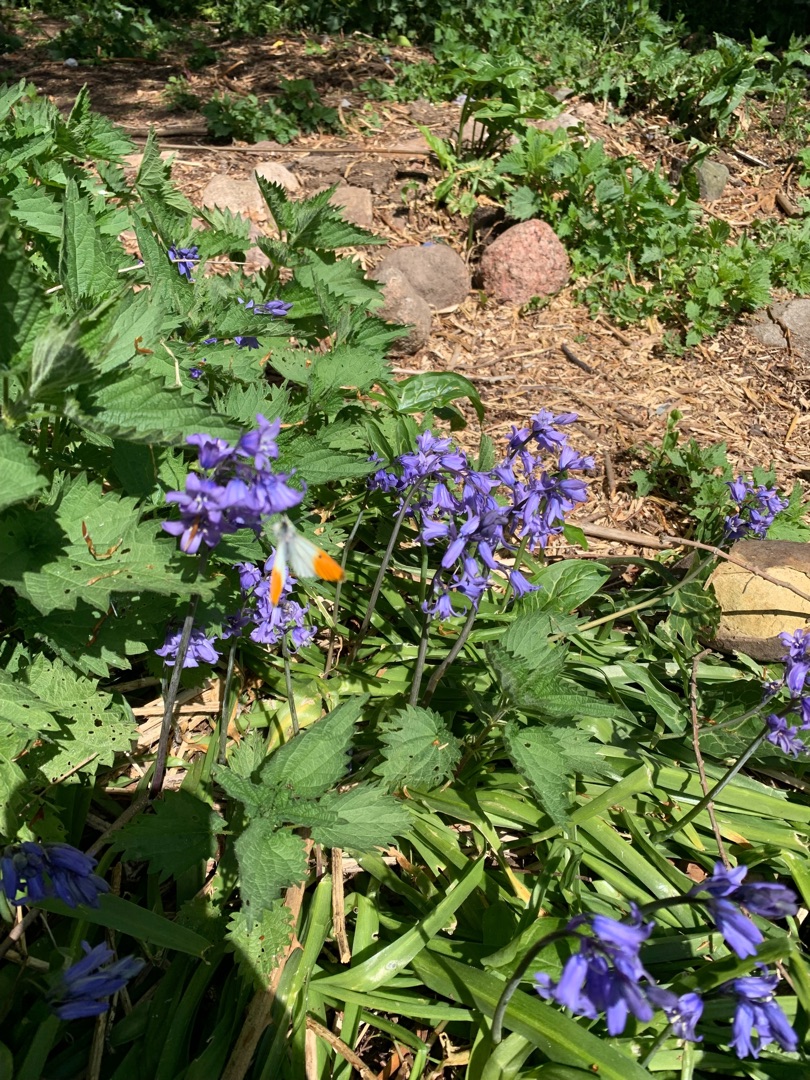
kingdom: Animalia
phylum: Arthropoda
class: Insecta
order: Lepidoptera
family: Pieridae
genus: Anthocharis
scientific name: Anthocharis cardamines
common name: Aurora
